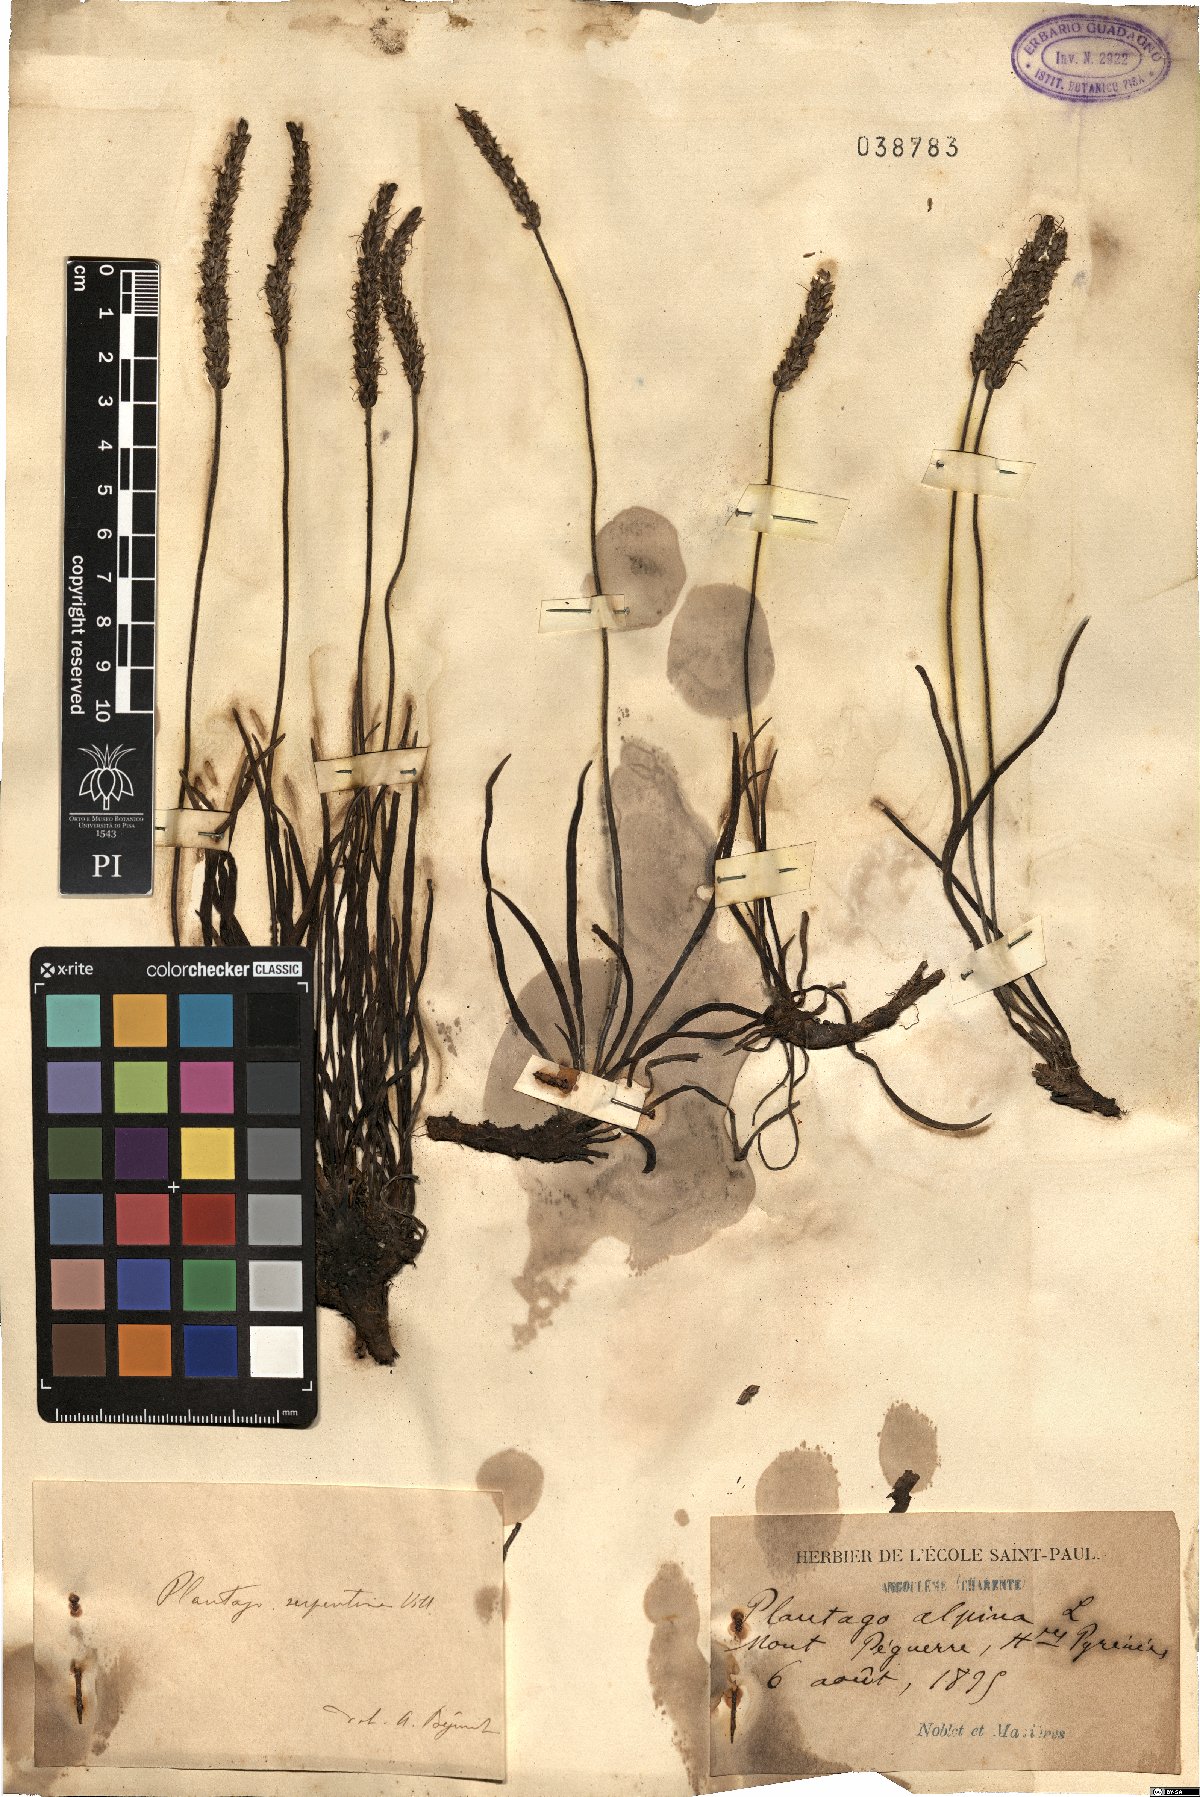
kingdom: Plantae
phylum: Tracheophyta
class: Magnoliopsida
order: Lamiales
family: Plantaginaceae
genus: Plantago
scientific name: Plantago alpina
